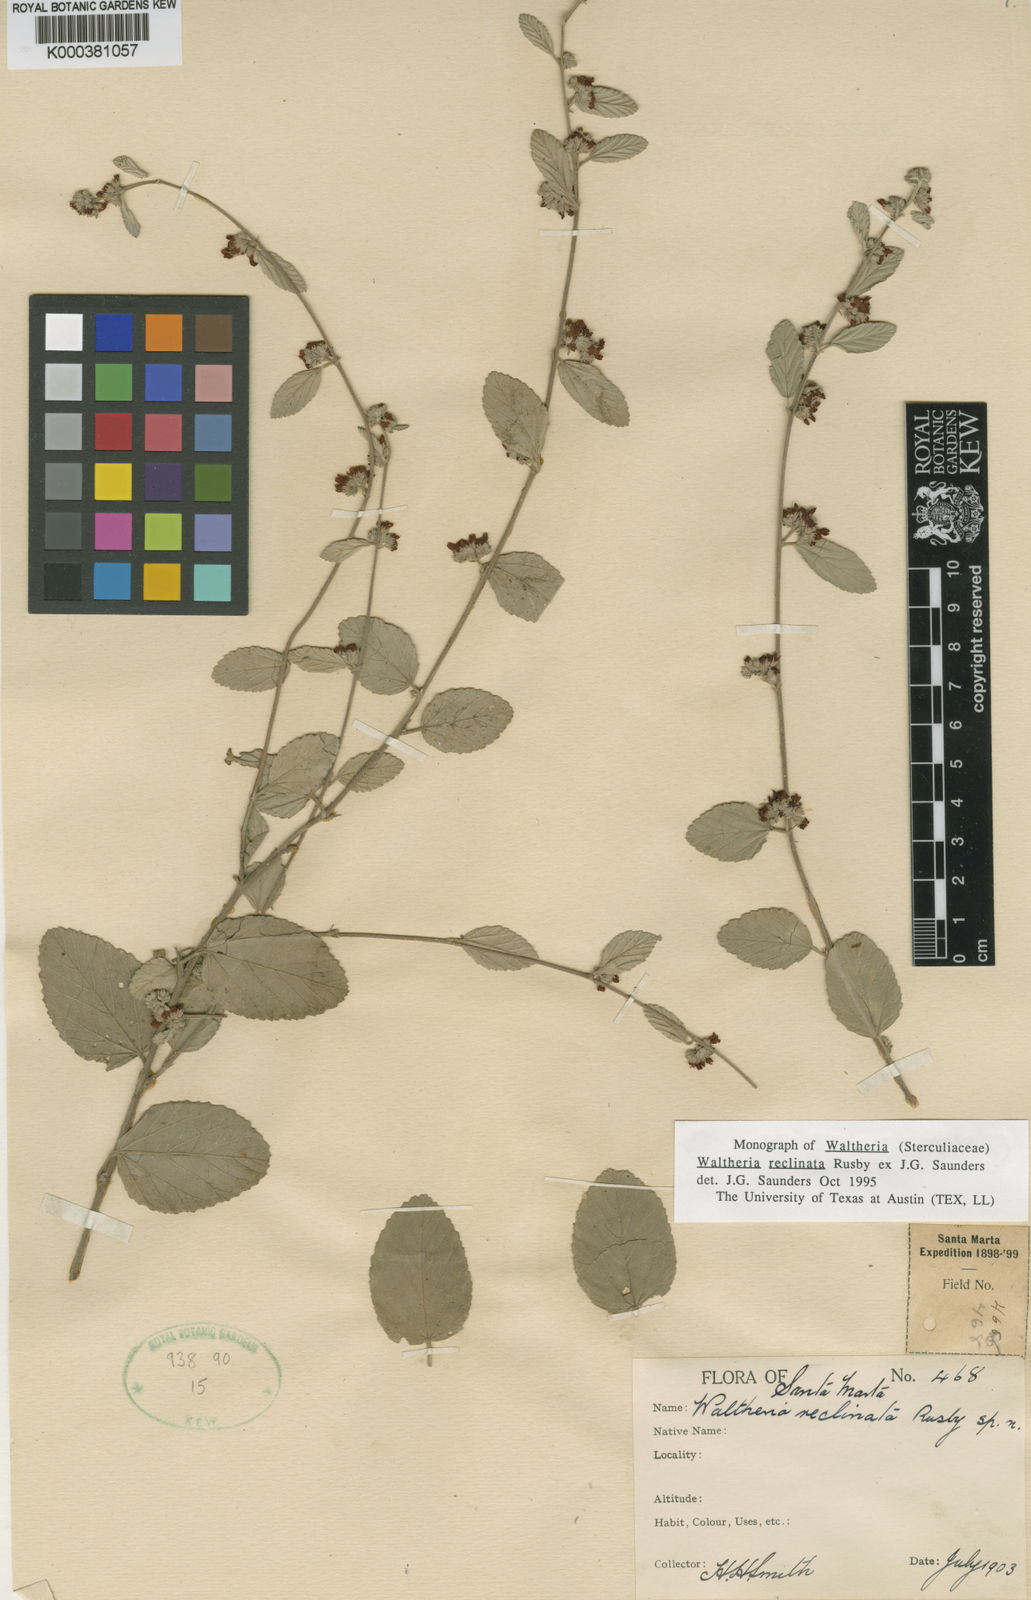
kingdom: Plantae
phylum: Tracheophyta
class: Magnoliopsida
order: Malvales
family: Malvaceae
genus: Waltheria
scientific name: Waltheria
